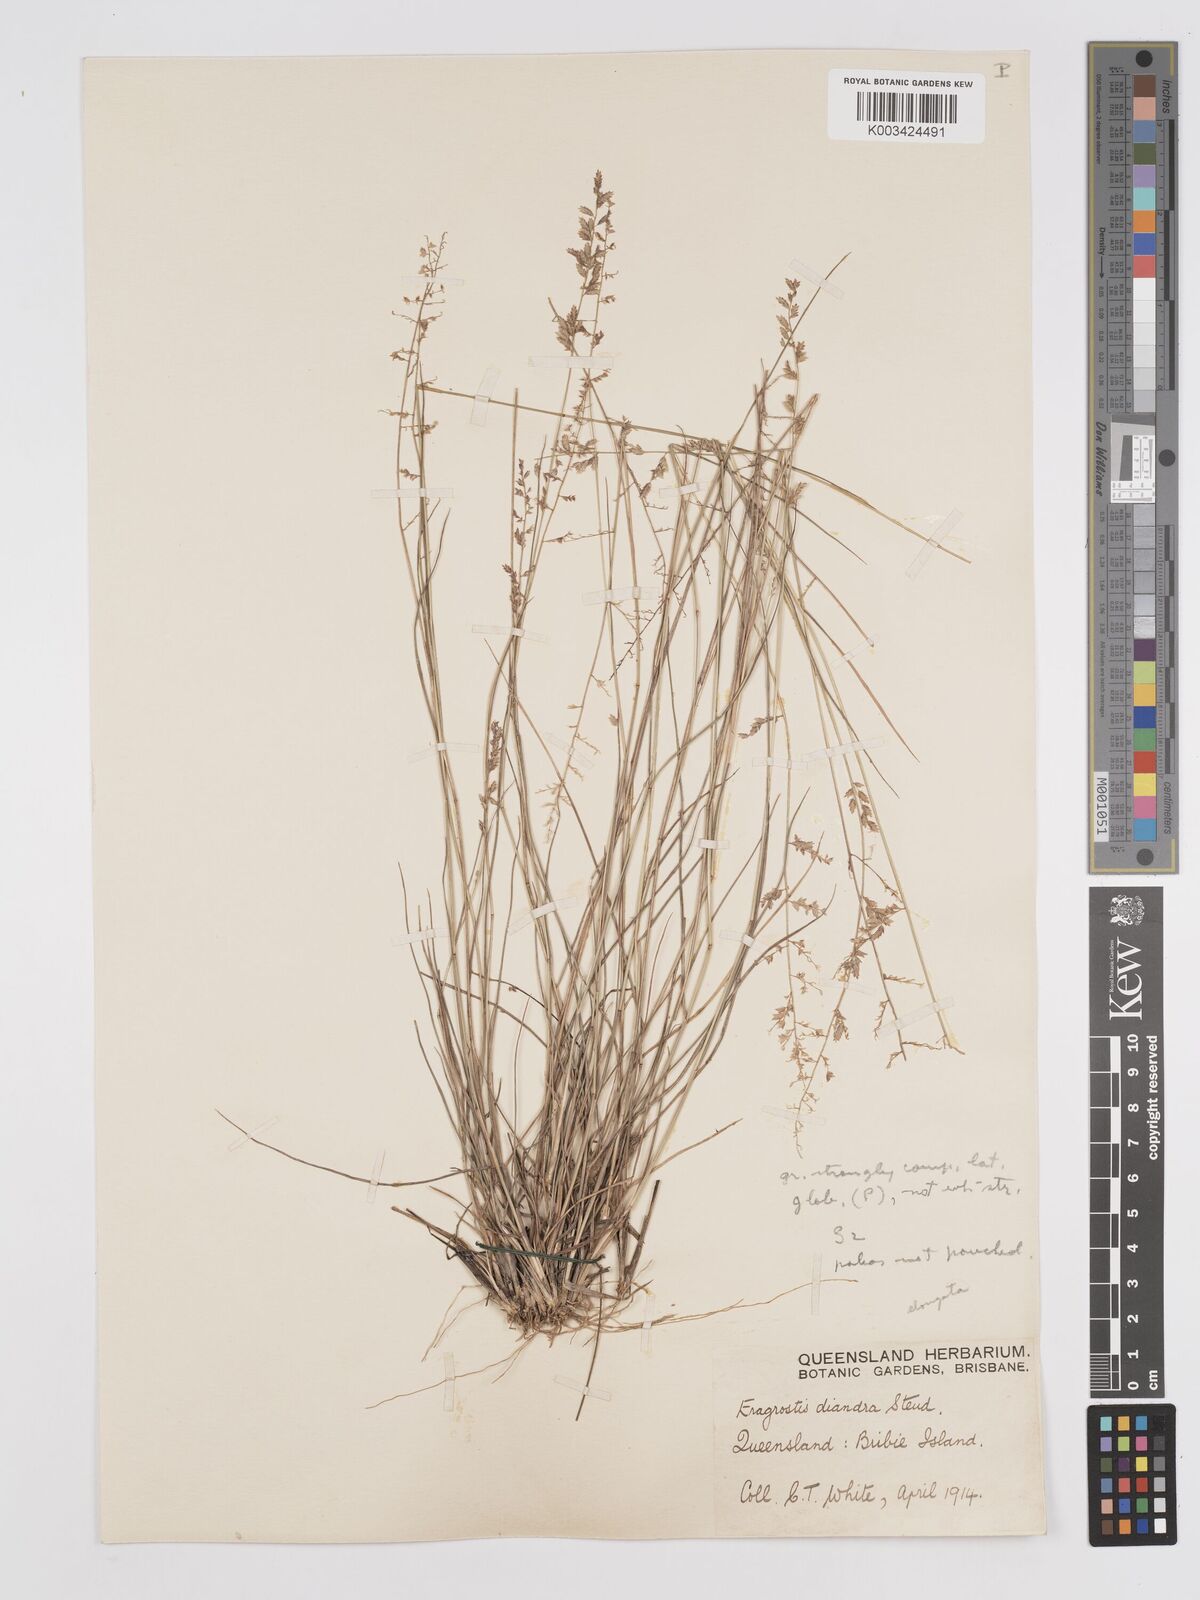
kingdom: Plantae
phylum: Tracheophyta
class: Liliopsida
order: Poales
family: Poaceae
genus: Eragrostis
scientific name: Eragrostis elongata
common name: Long lovegrass
